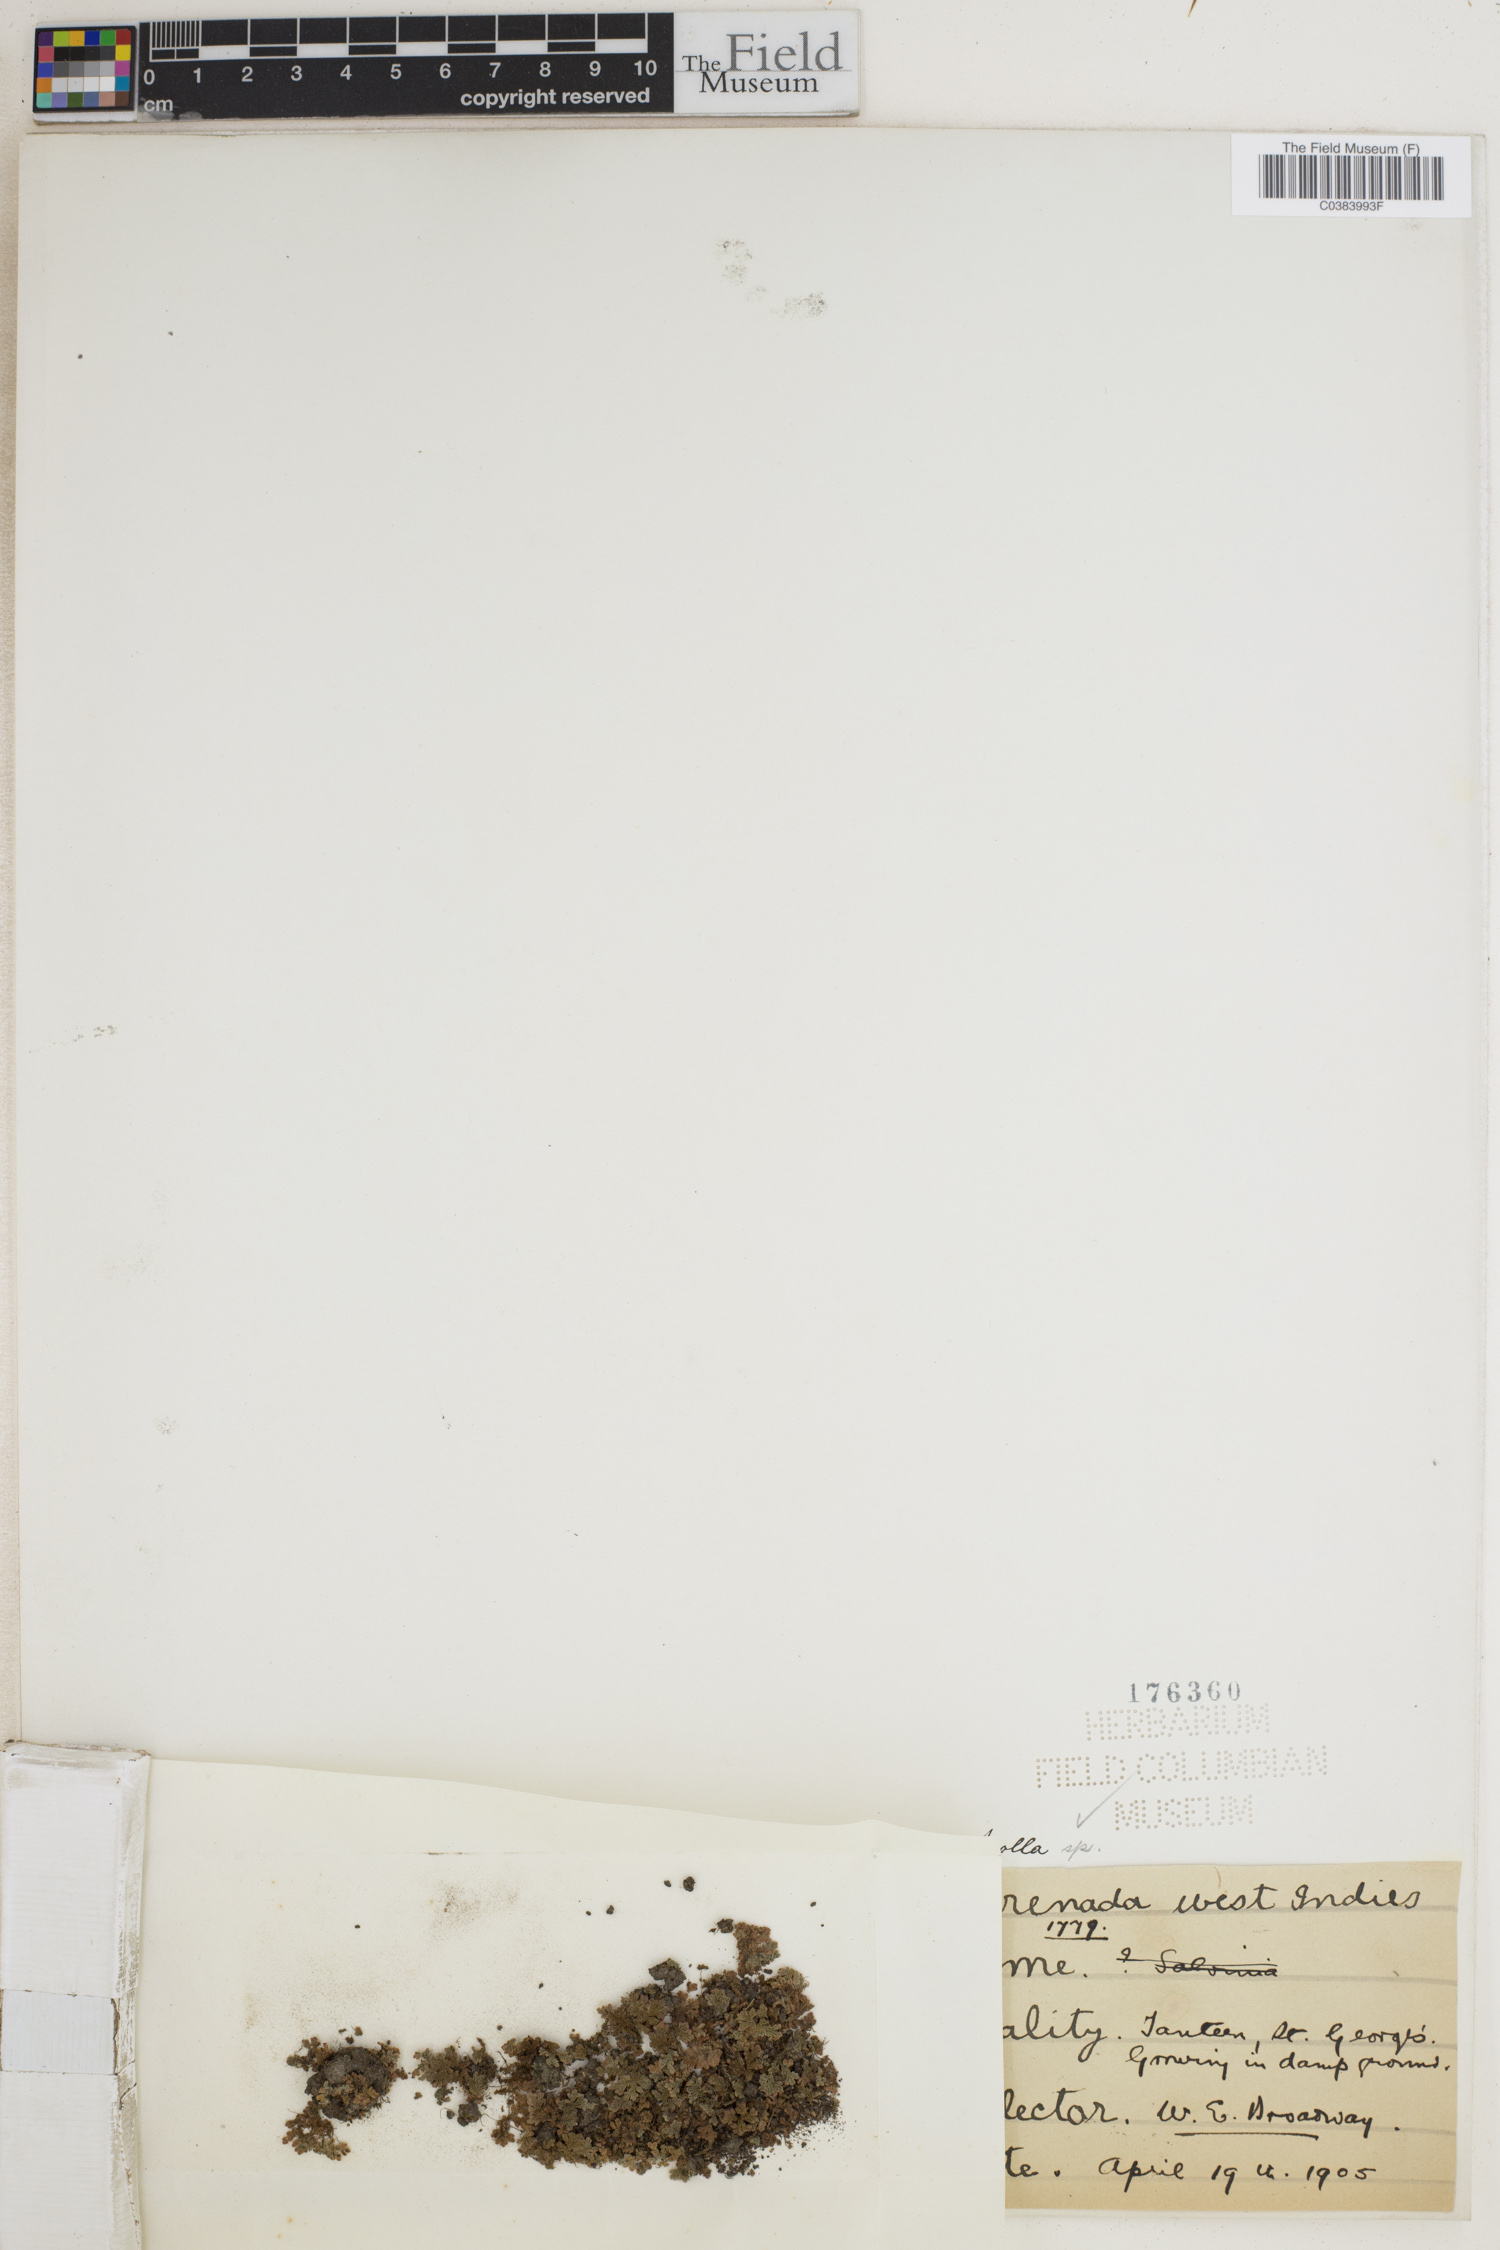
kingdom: Plantae
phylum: Tracheophyta
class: Polypodiopsida
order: Salviniales
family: Salviniaceae
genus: Azolla
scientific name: Azolla
